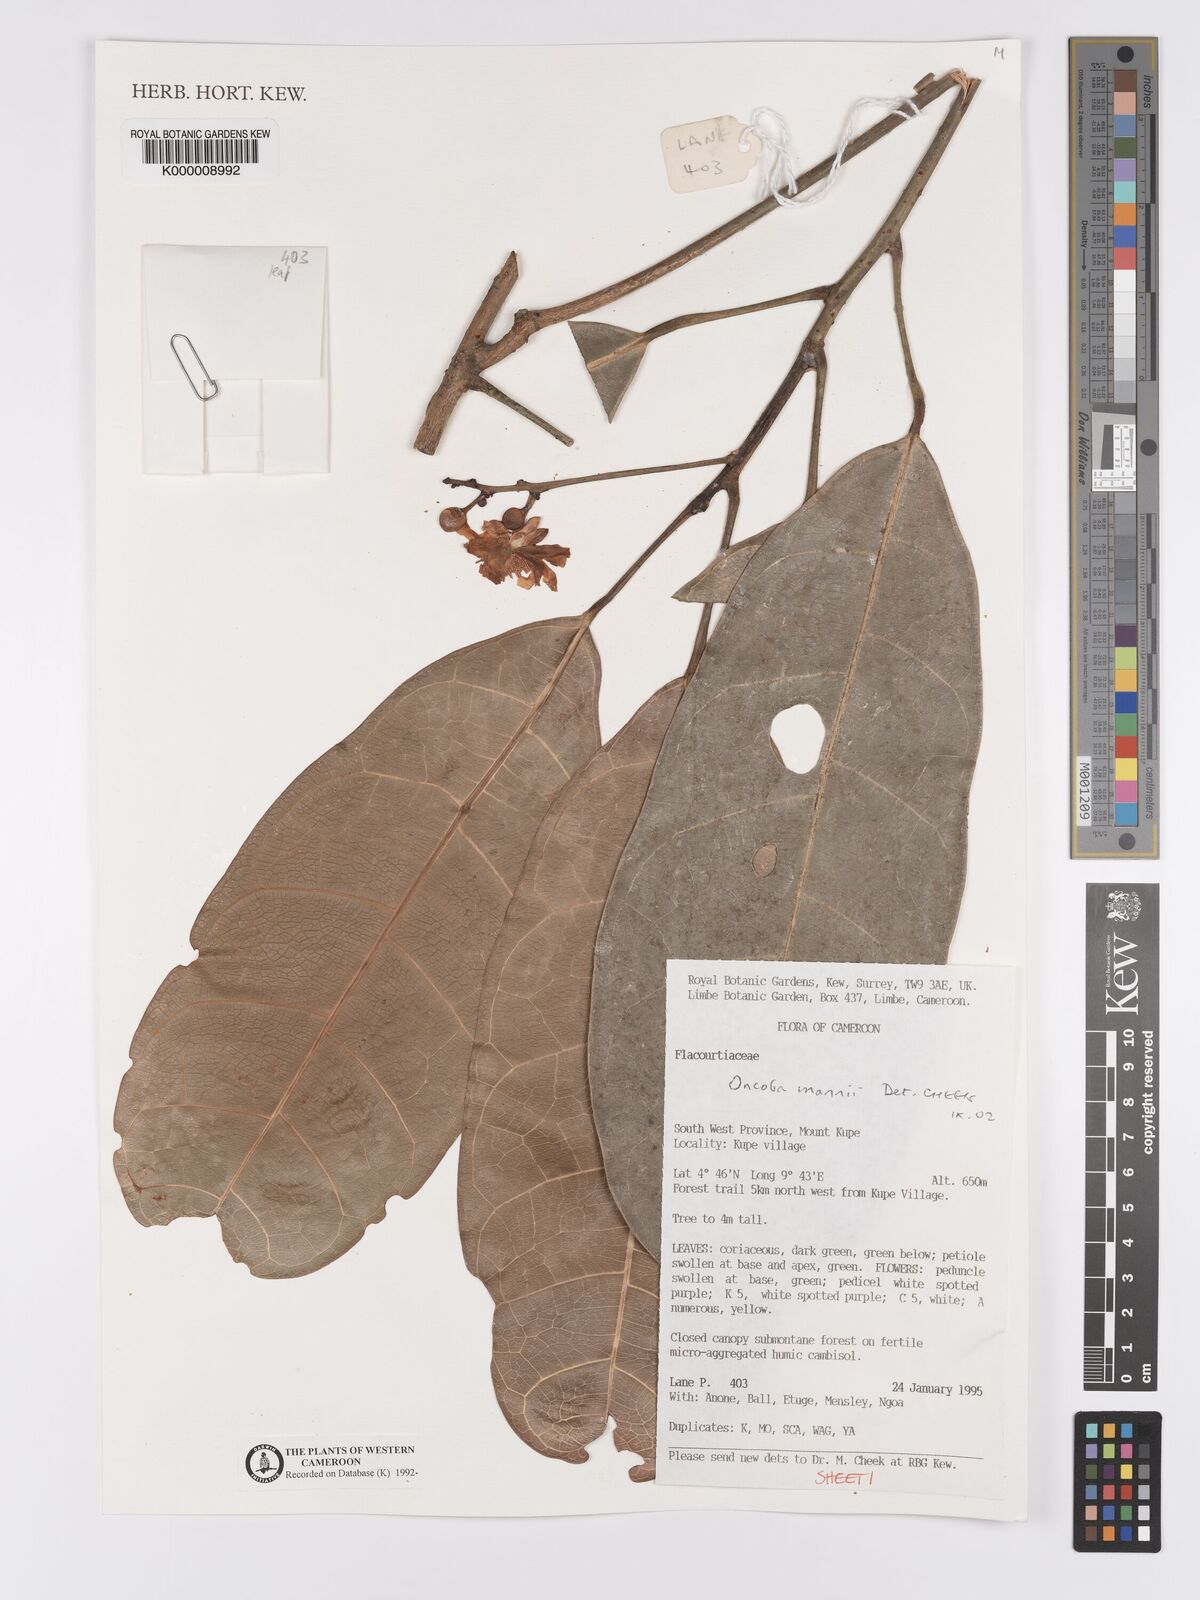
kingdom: Plantae
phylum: Tracheophyta
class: Magnoliopsida
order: Malpighiales
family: Achariaceae
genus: Camptostylus
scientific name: Camptostylus mannii
